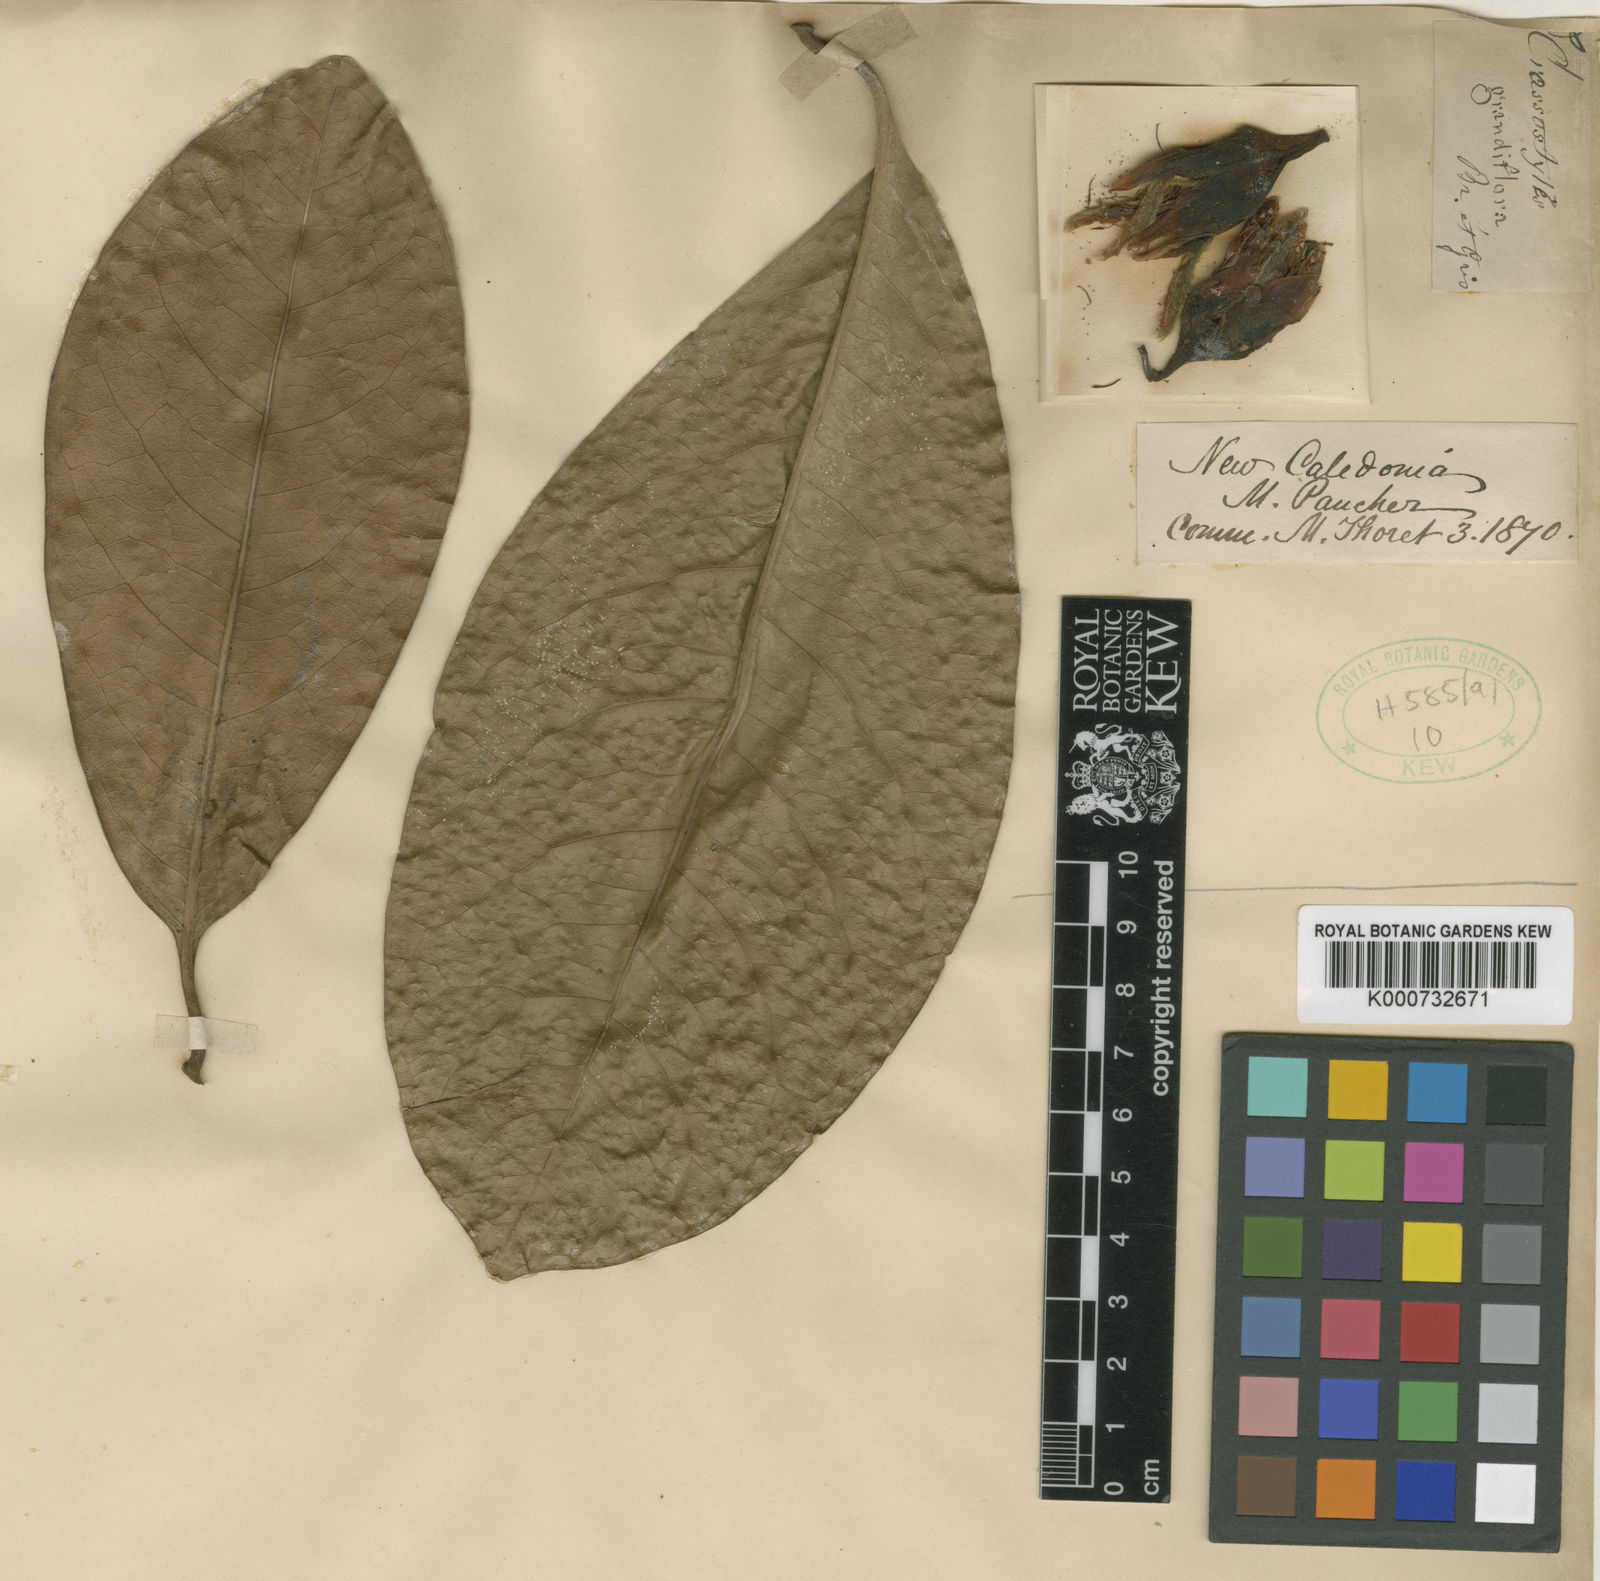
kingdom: Plantae
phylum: Tracheophyta
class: Magnoliopsida
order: Malpighiales
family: Rhizophoraceae
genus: Crossostylis
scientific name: Crossostylis grandiflora
